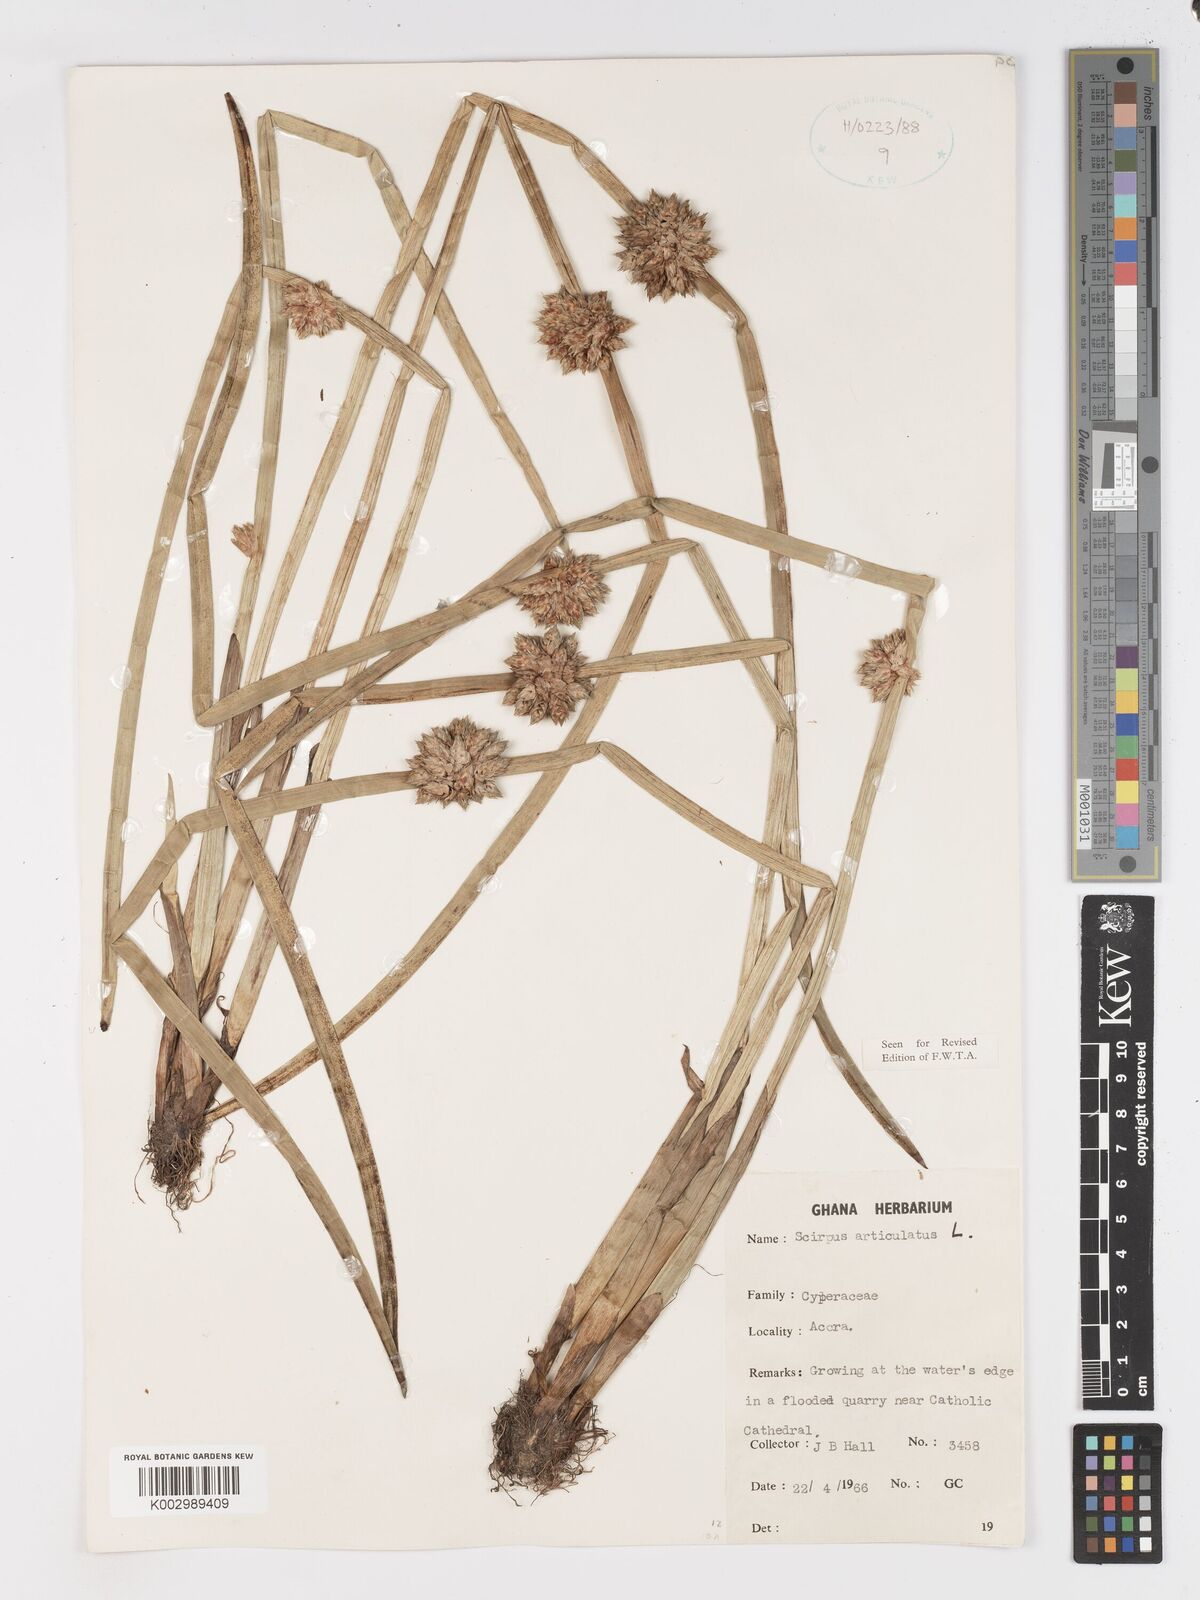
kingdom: Plantae
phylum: Tracheophyta
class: Liliopsida
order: Poales
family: Cyperaceae
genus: Schoenoplectiella
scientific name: Schoenoplectiella articulata
